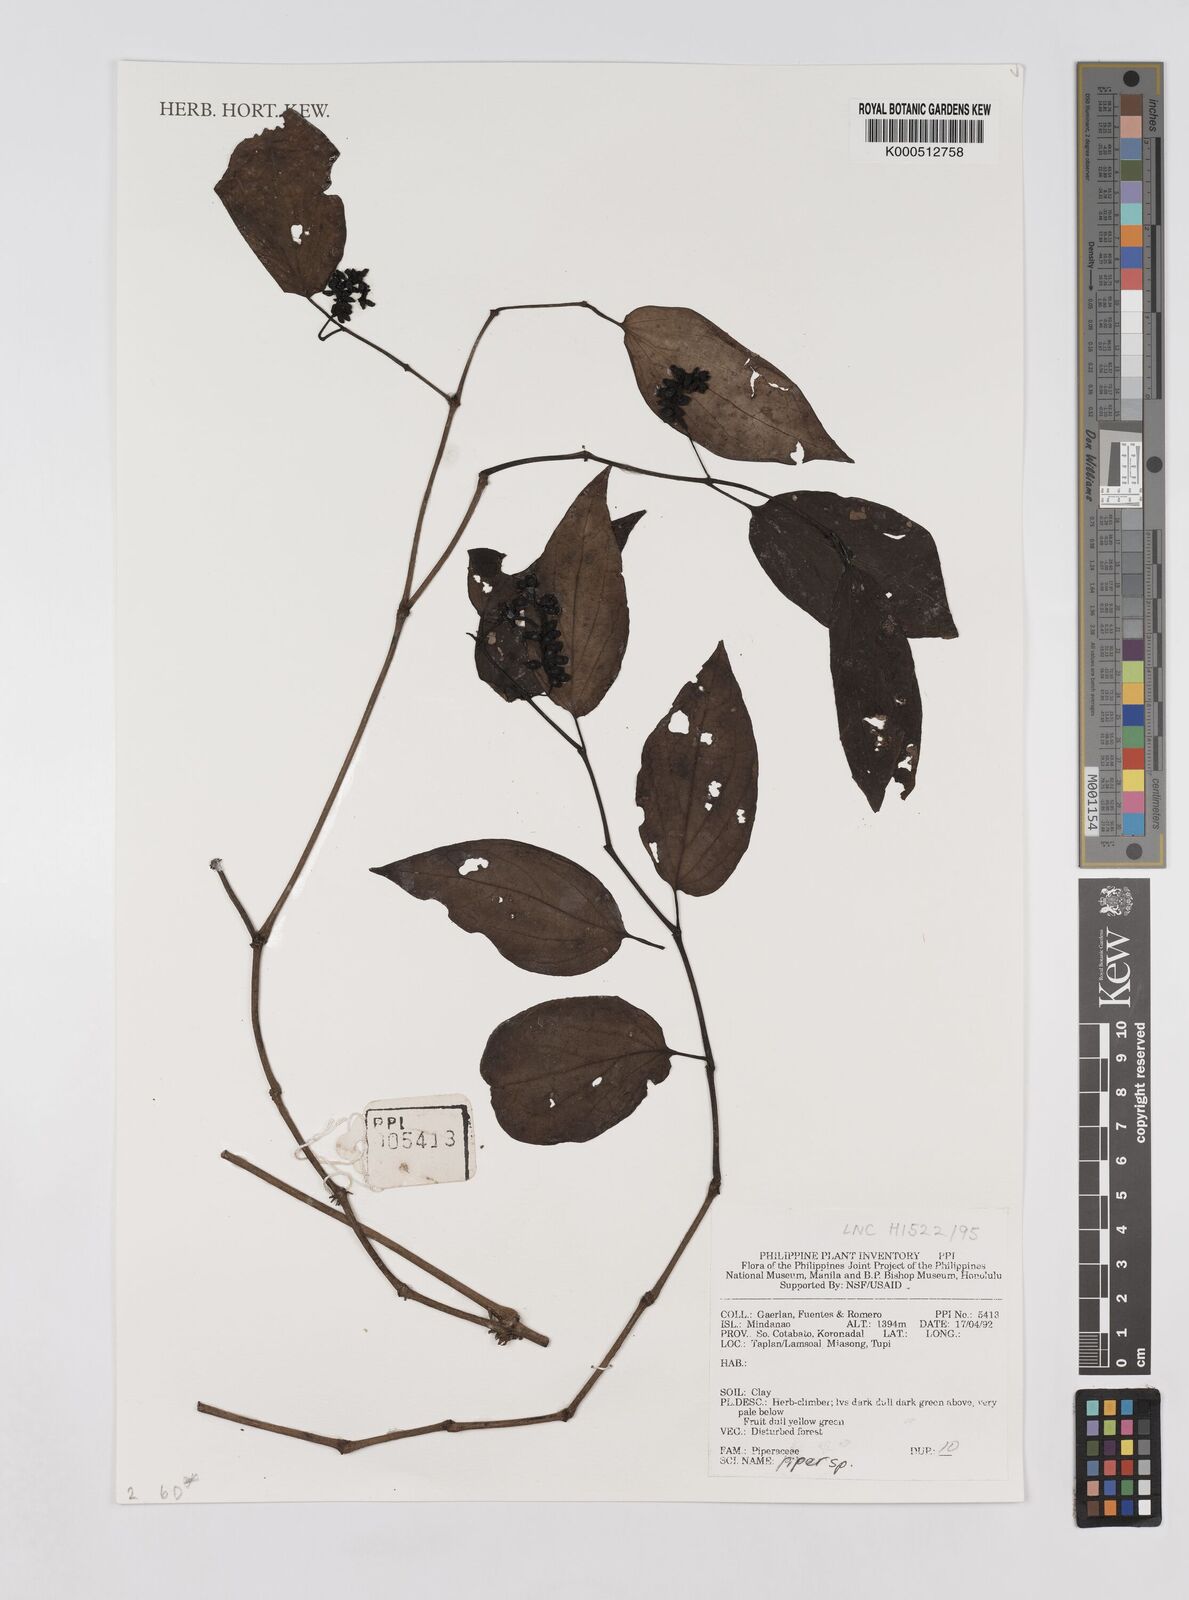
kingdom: Plantae
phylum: Tracheophyta
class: Magnoliopsida
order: Piperales
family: Piperaceae
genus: Piper
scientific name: Piper
